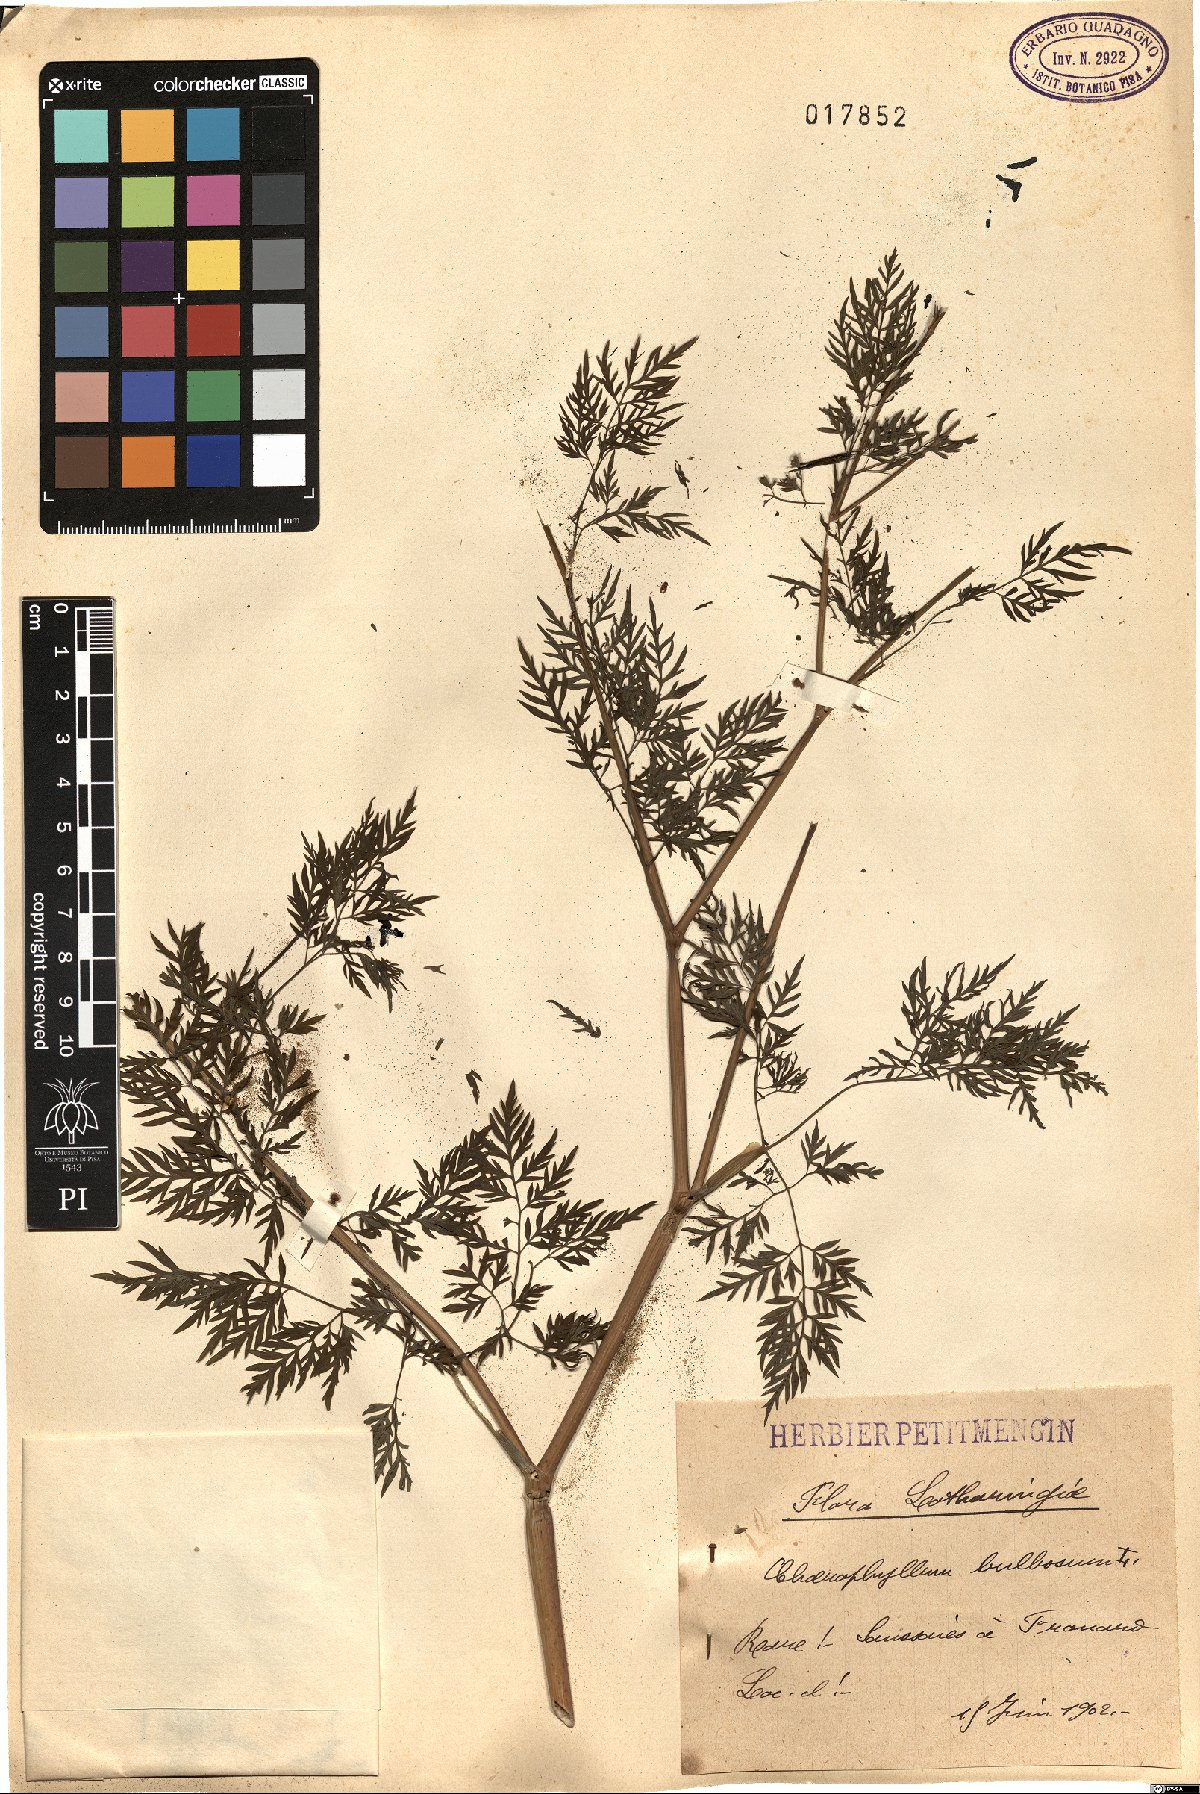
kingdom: Plantae
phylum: Tracheophyta
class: Magnoliopsida
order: Apiales
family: Apiaceae
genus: Chaerophyllum
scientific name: Chaerophyllum bulbosum
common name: Bulbous chervil
